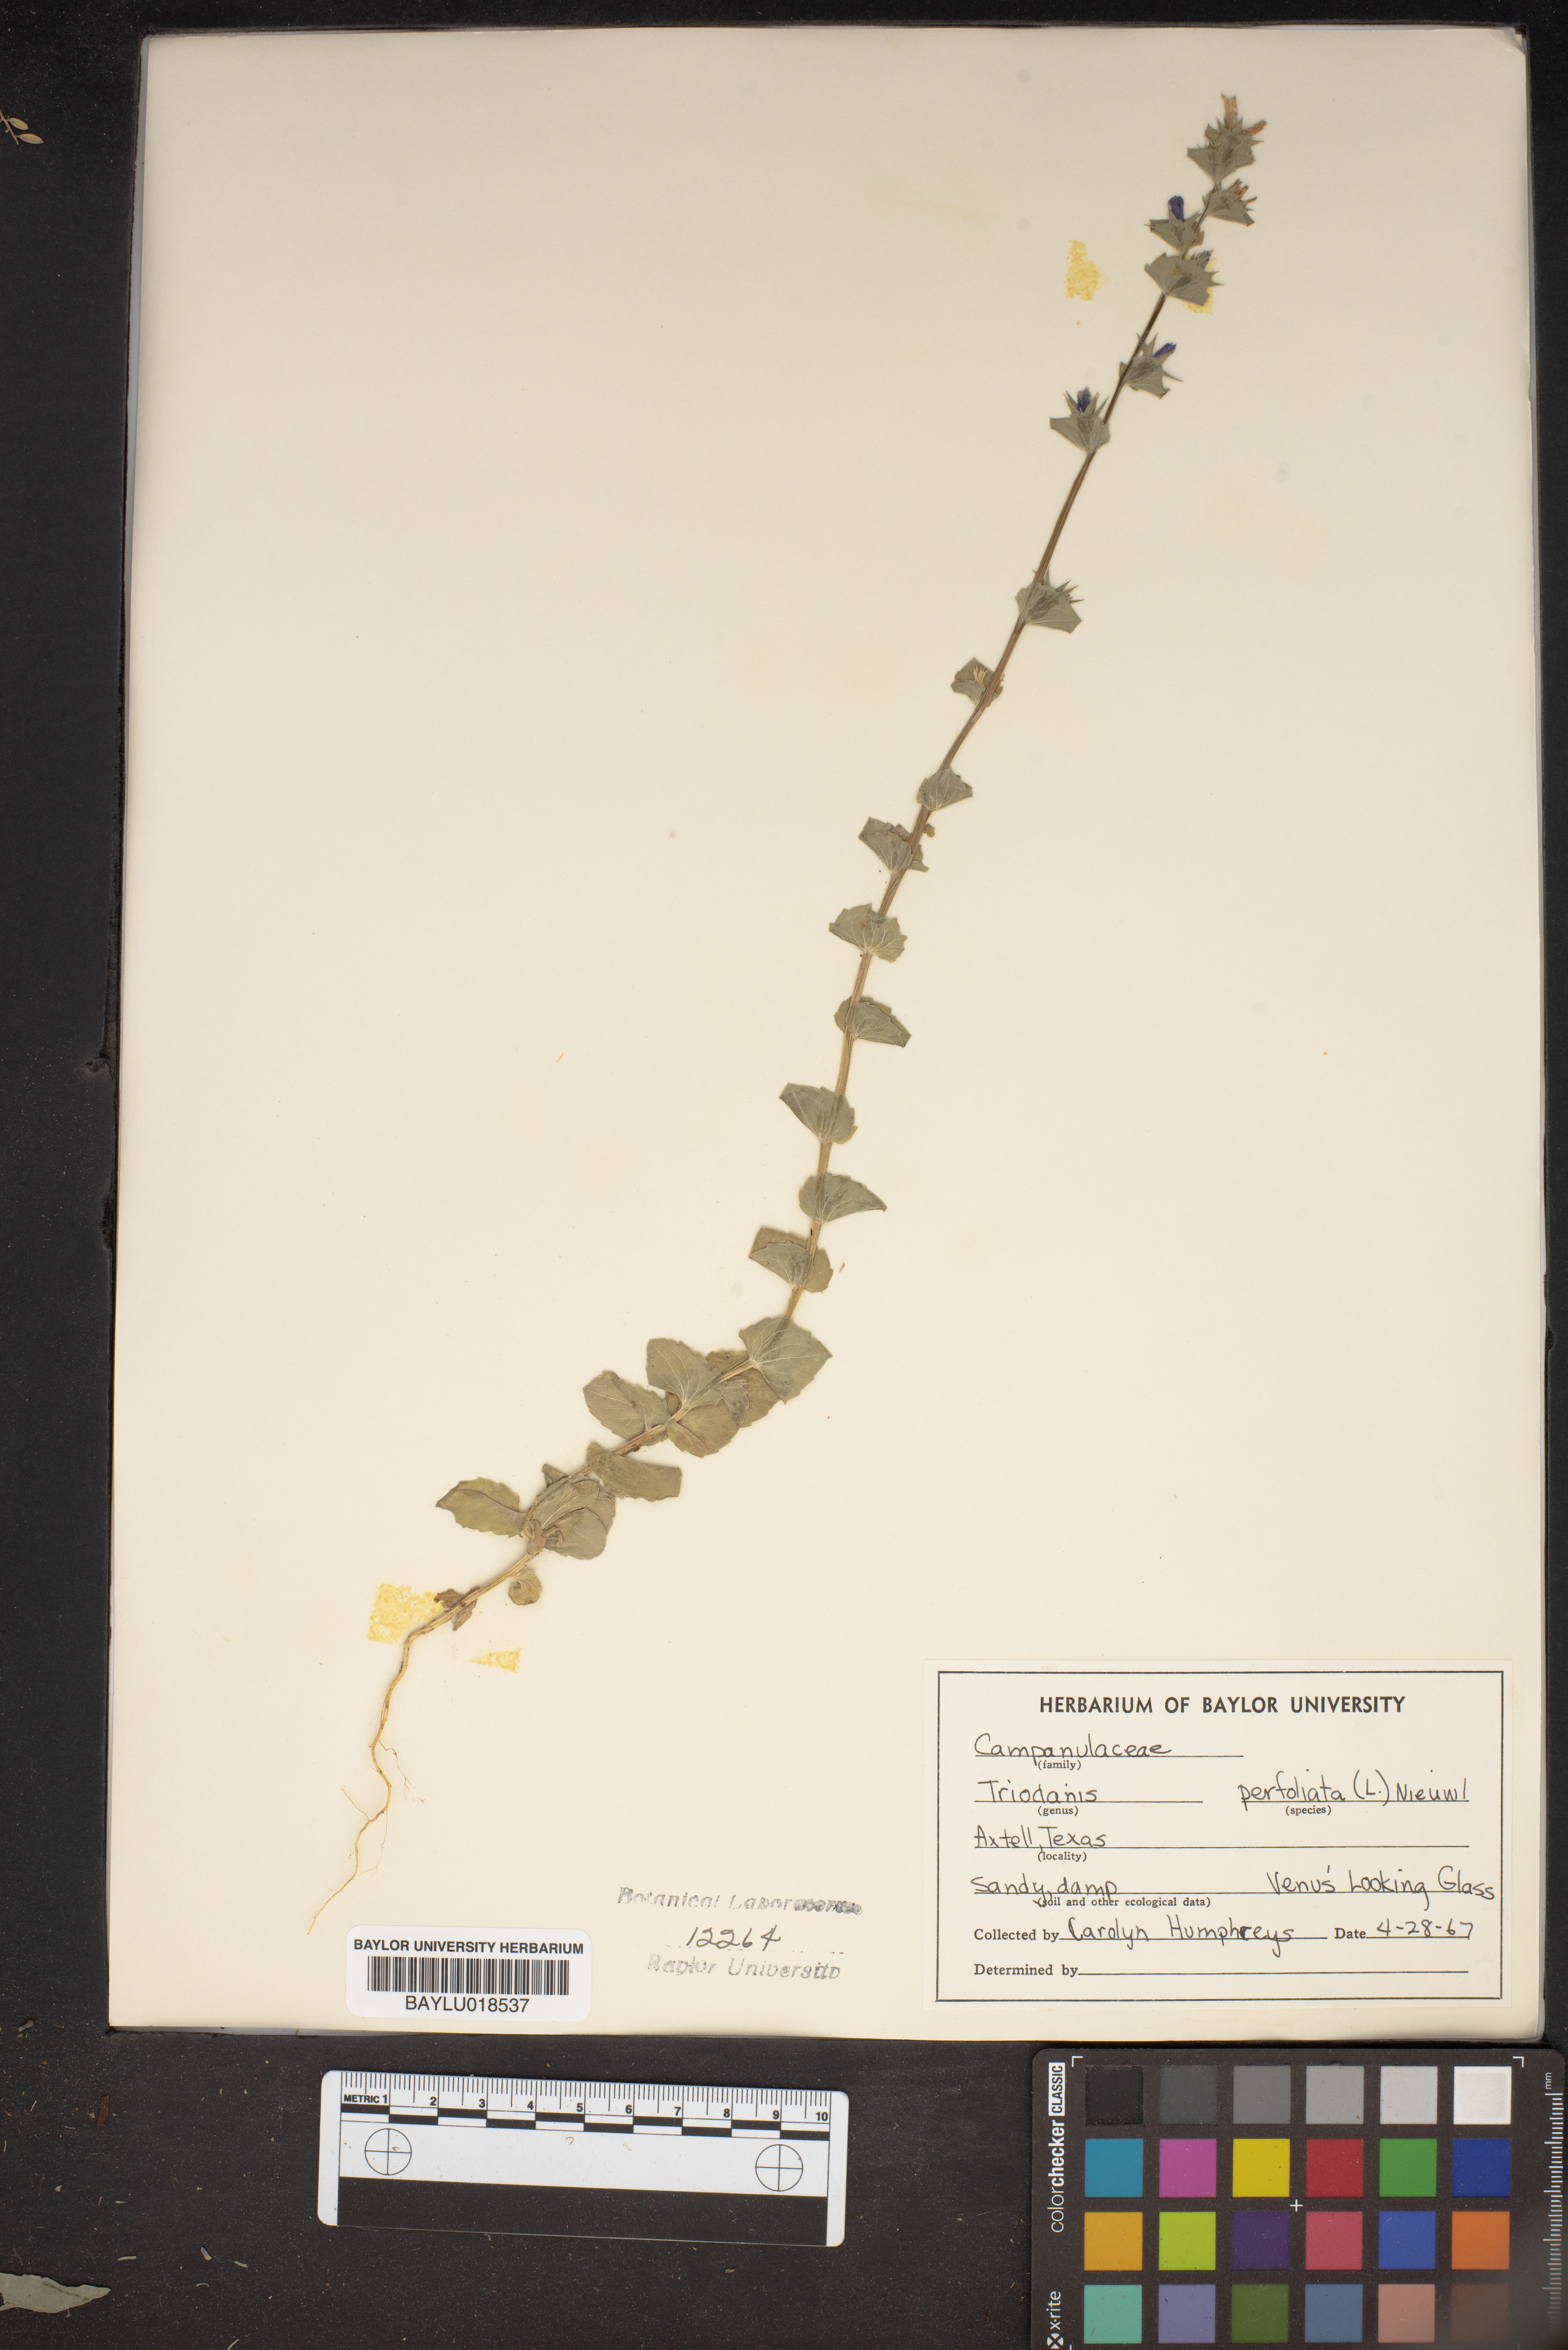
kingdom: Plantae
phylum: Tracheophyta
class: Magnoliopsida
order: Asterales
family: Campanulaceae
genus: Triodanis
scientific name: Triodanis perfoliata
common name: Clasping venus' looking-glass
